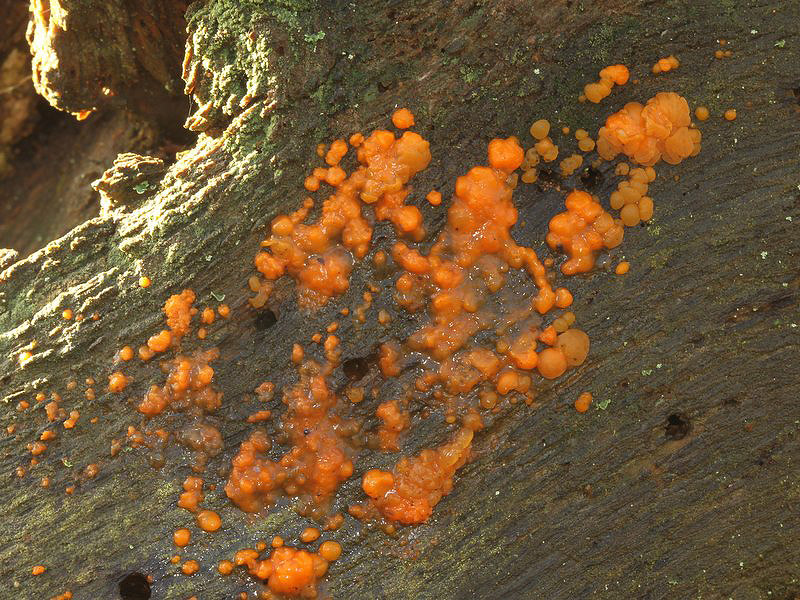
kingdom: Fungi
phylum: Basidiomycota
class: Dacrymycetes
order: Dacrymycetales
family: Dacrymycetaceae
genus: Dacrymyces
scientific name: Dacrymyces stillatus
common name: almindelig tåresvamp
